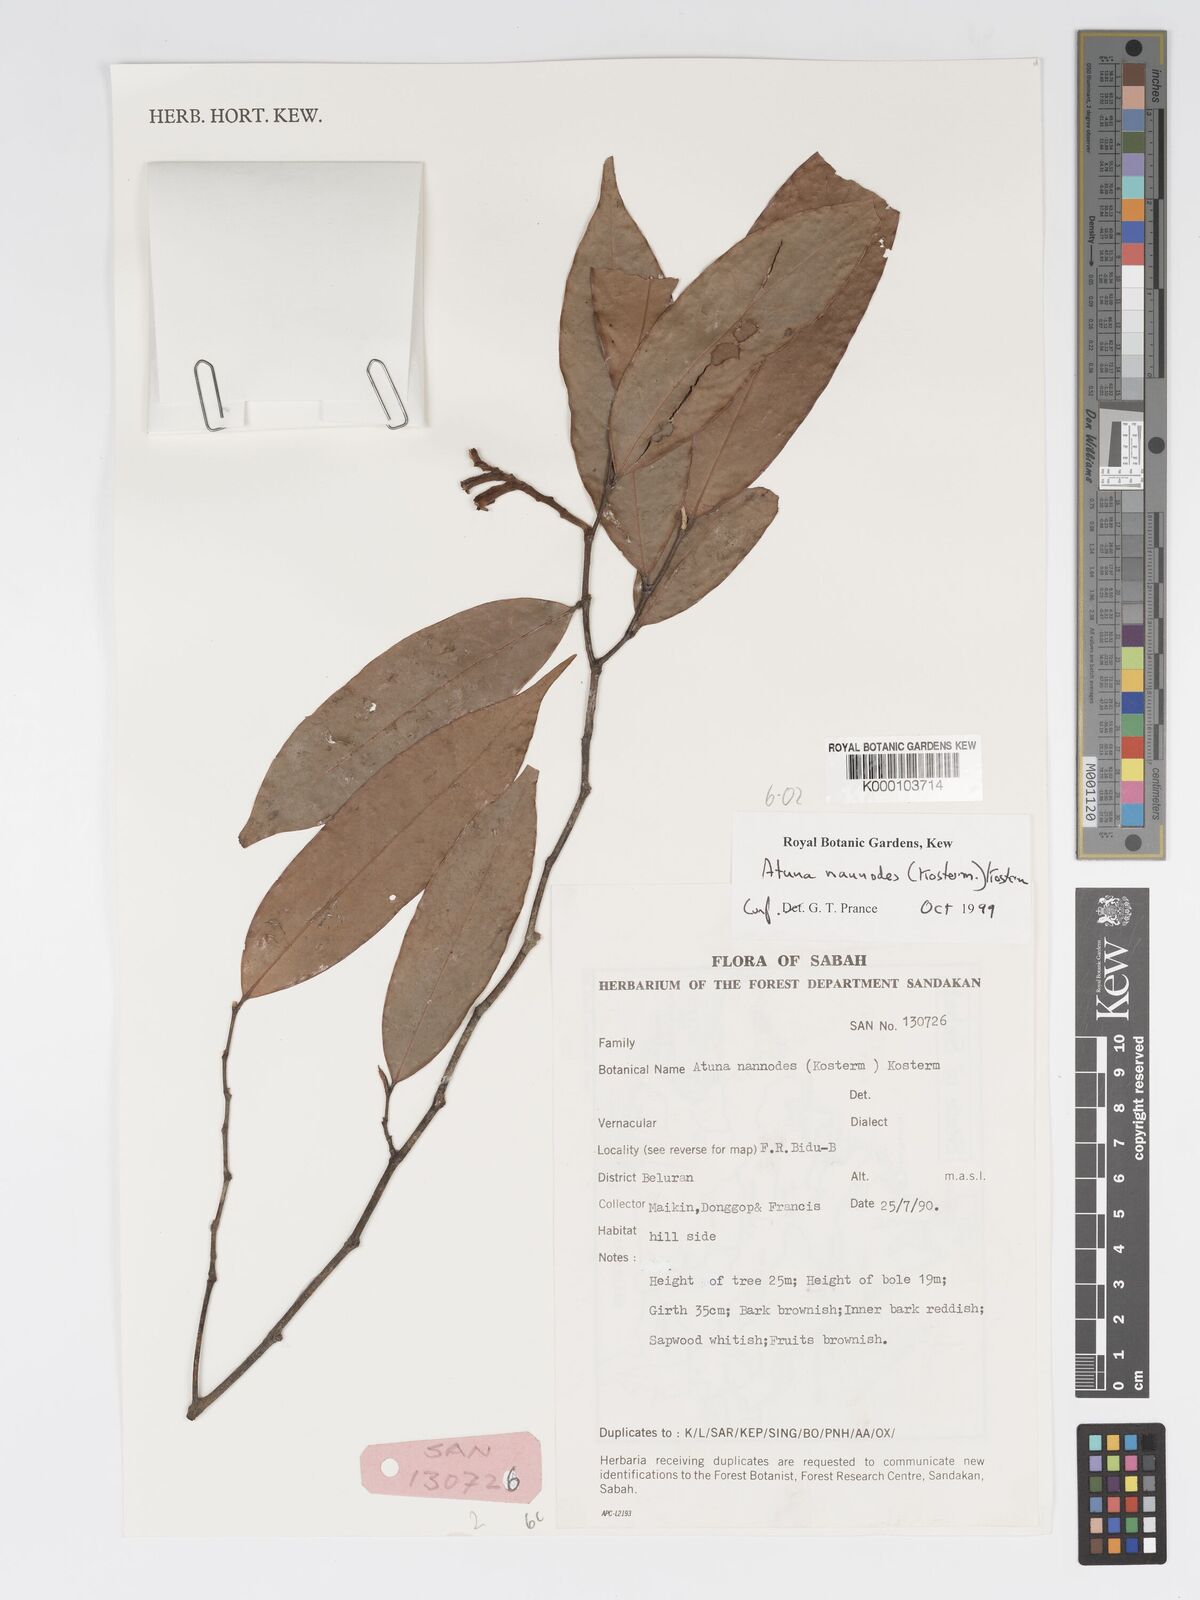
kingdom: Plantae
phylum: Tracheophyta
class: Magnoliopsida
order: Malpighiales
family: Chrysobalanaceae
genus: Atuna
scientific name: Atuna nannodes
